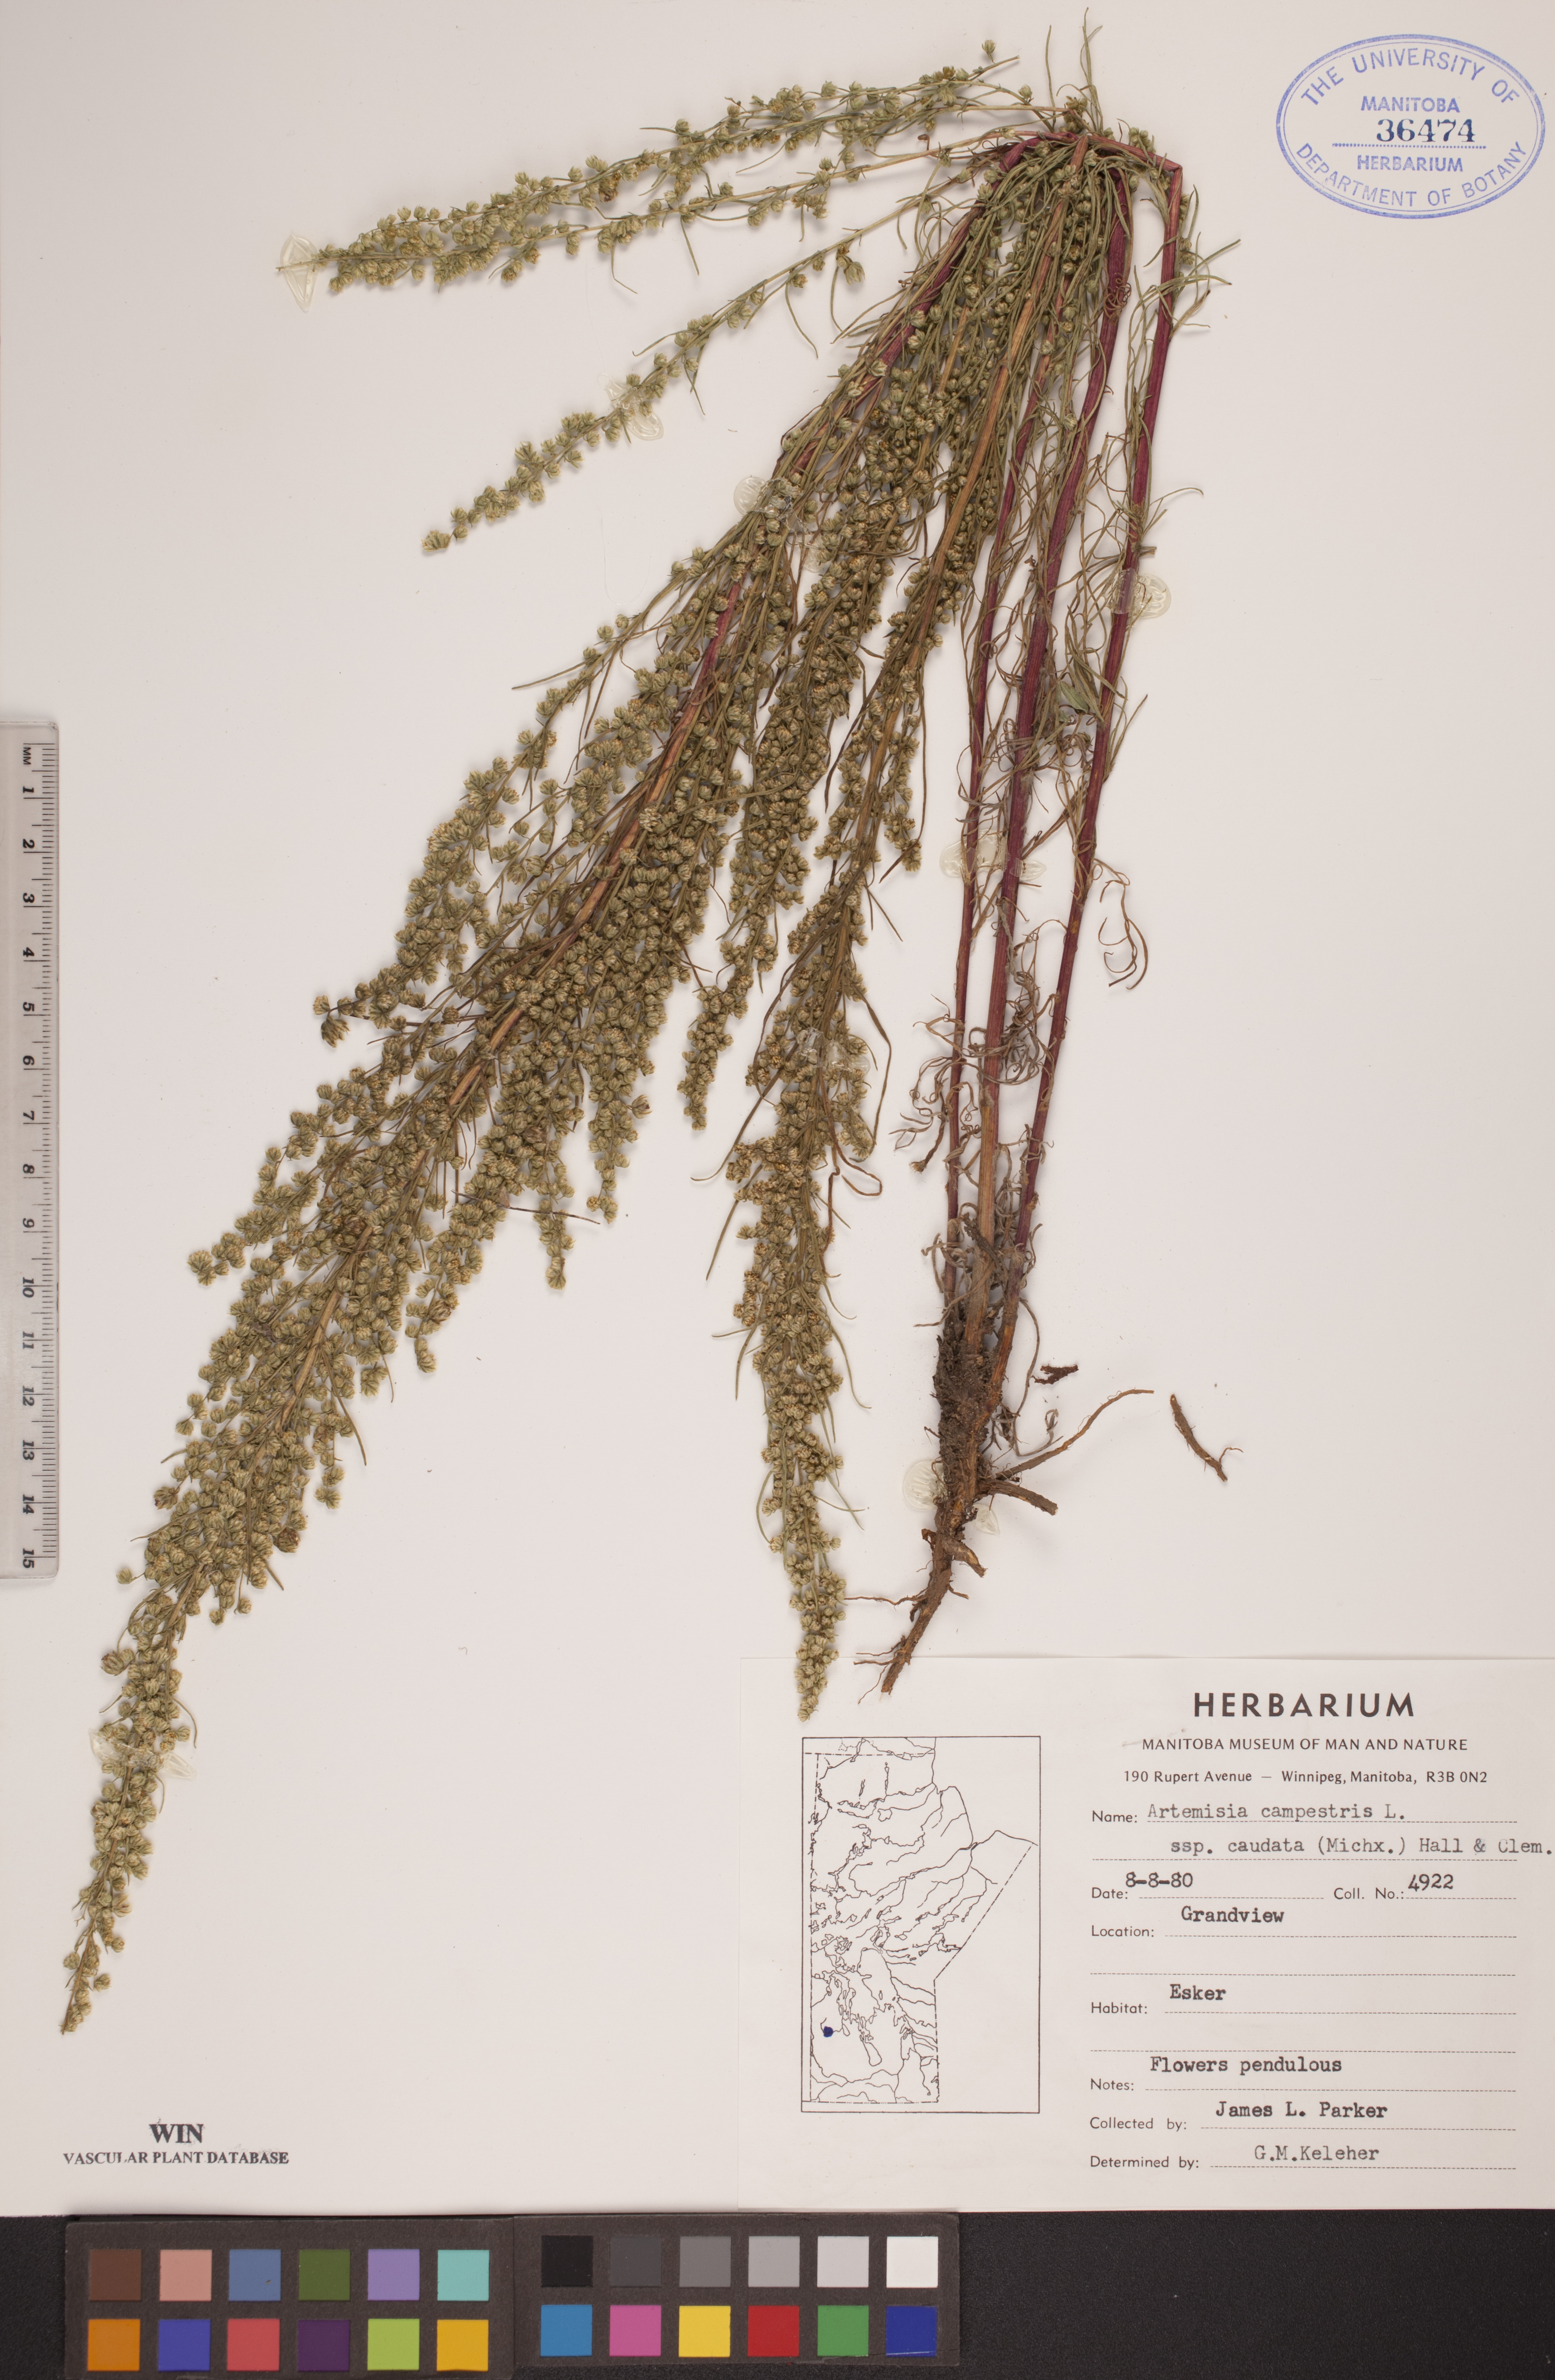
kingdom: Plantae
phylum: Tracheophyta
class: Magnoliopsida
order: Asterales
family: Asteraceae
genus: Artemisia
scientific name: Artemisia campestris
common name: Field wormwood
